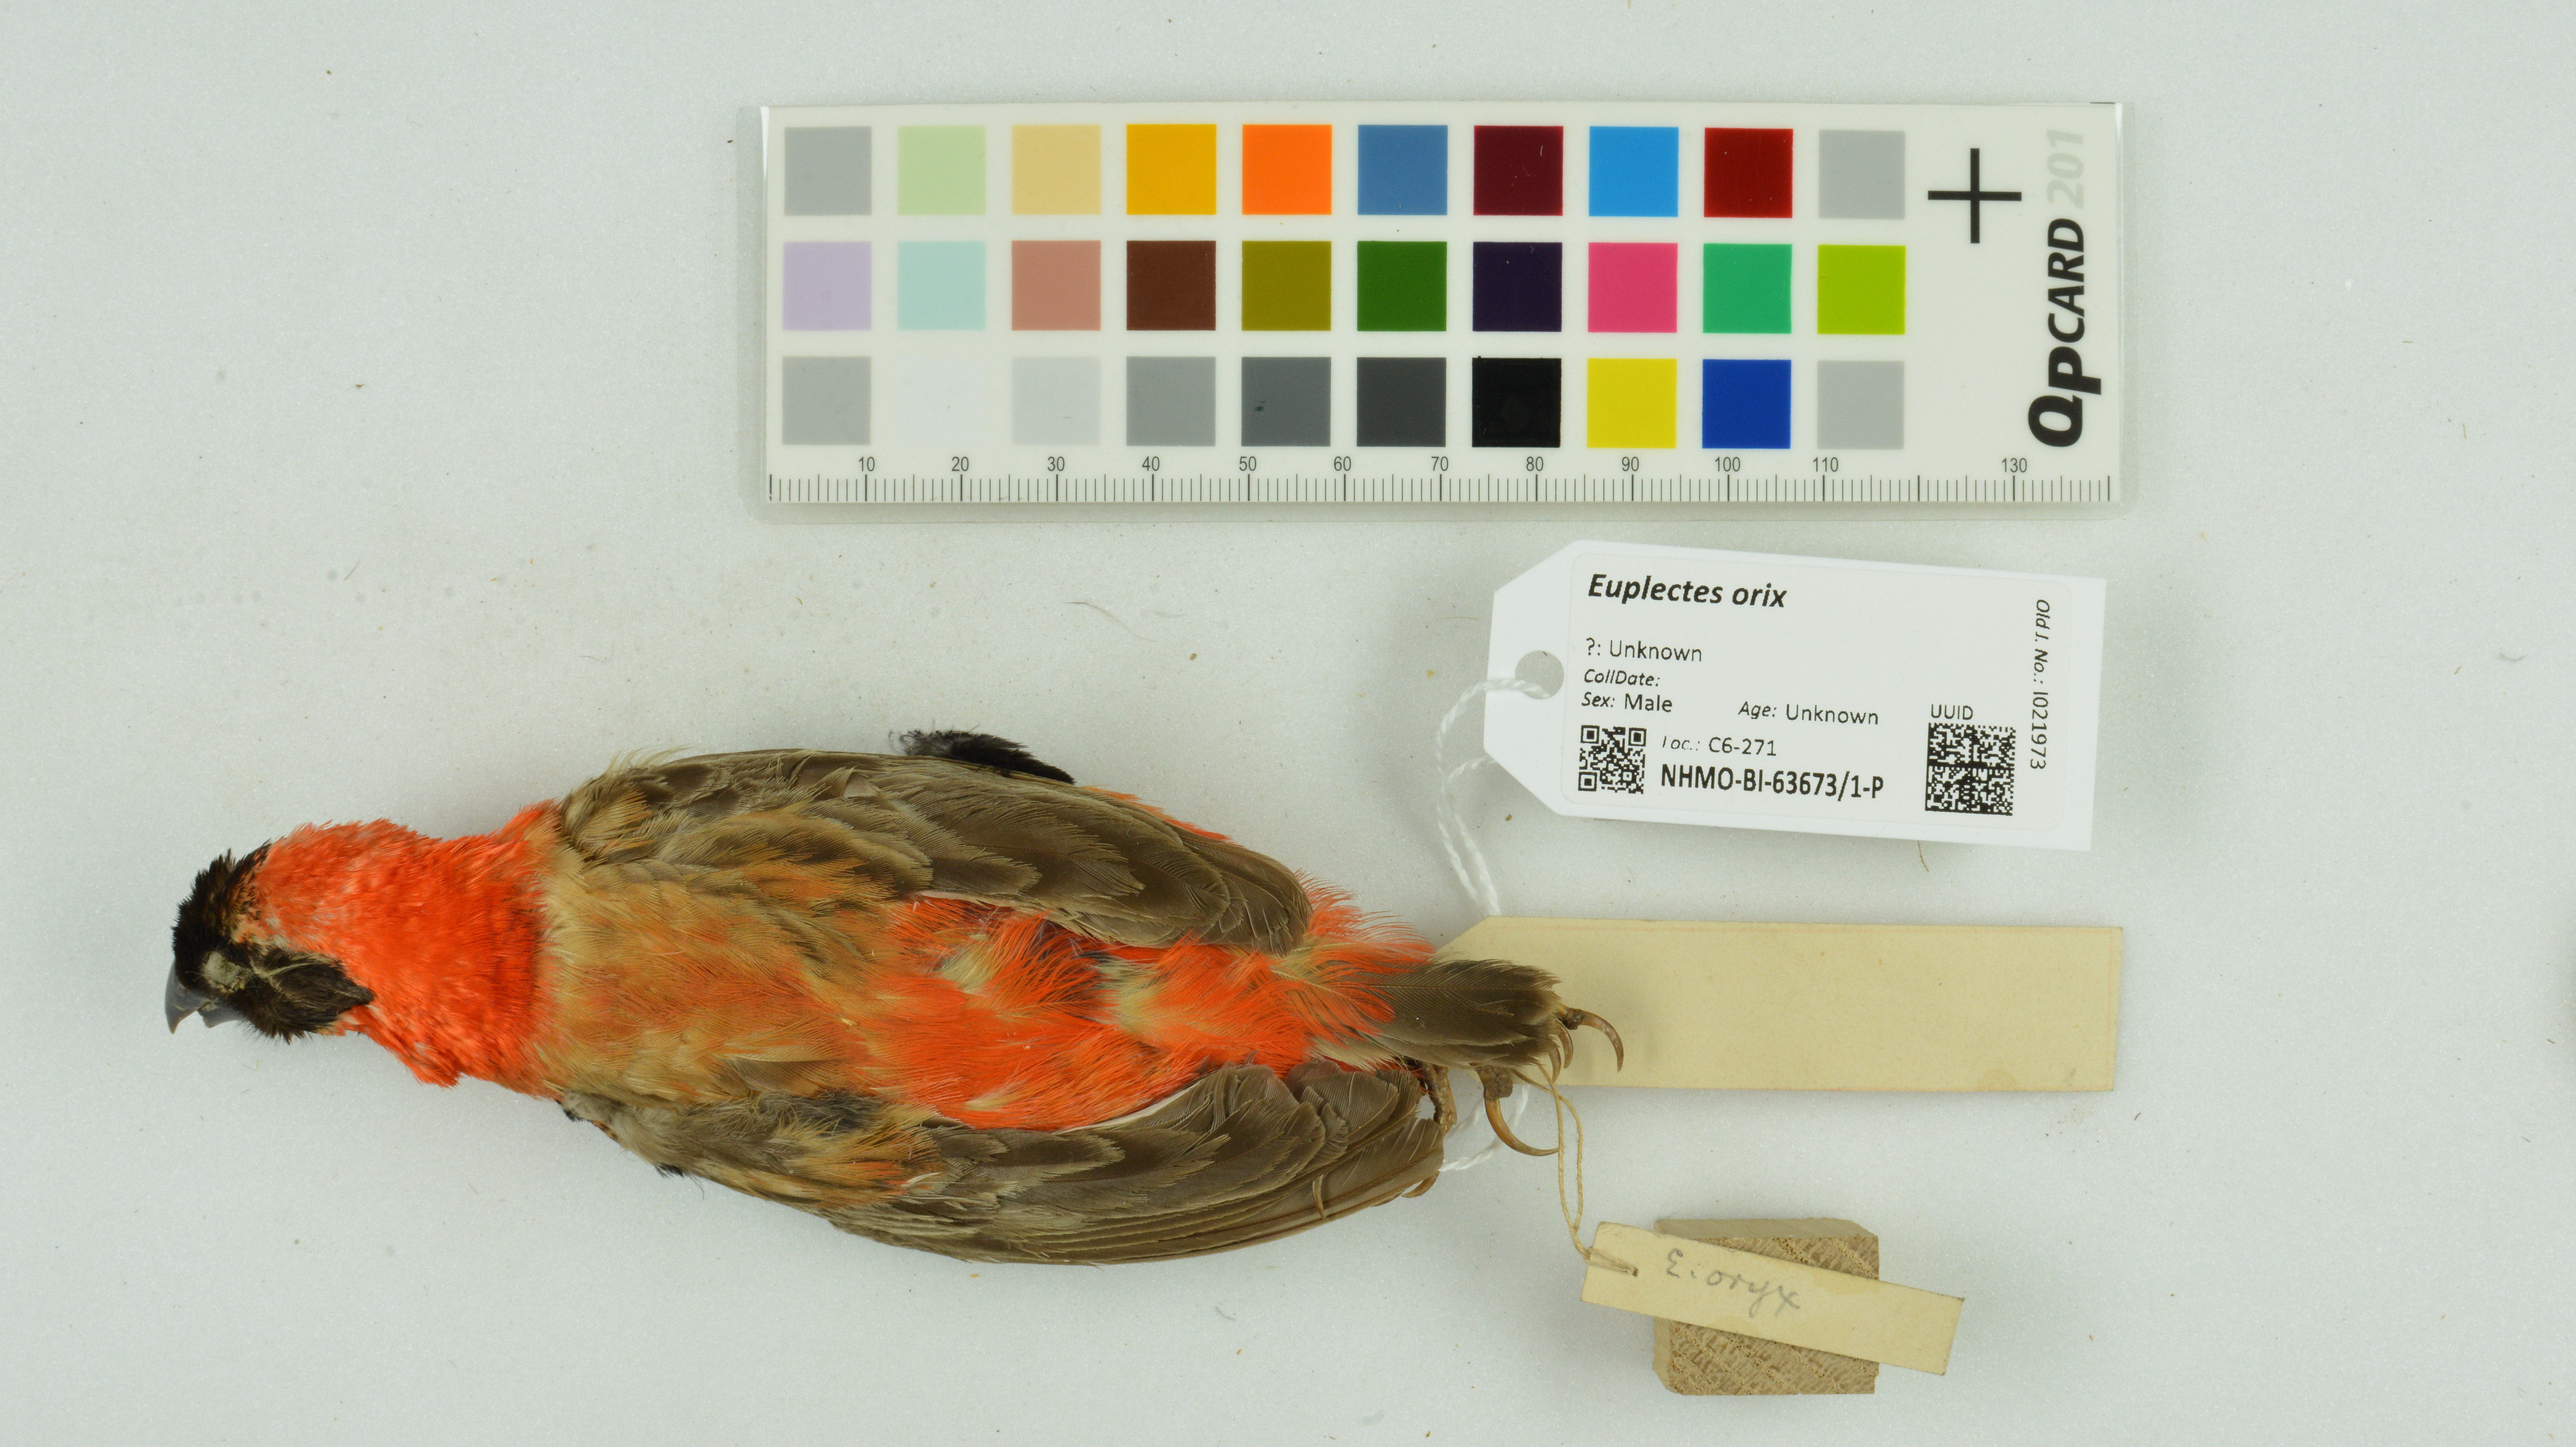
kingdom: Animalia
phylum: Chordata
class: Aves
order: Passeriformes
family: Ploceidae
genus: Euplectes
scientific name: Euplectes orix
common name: Southern red bishop
